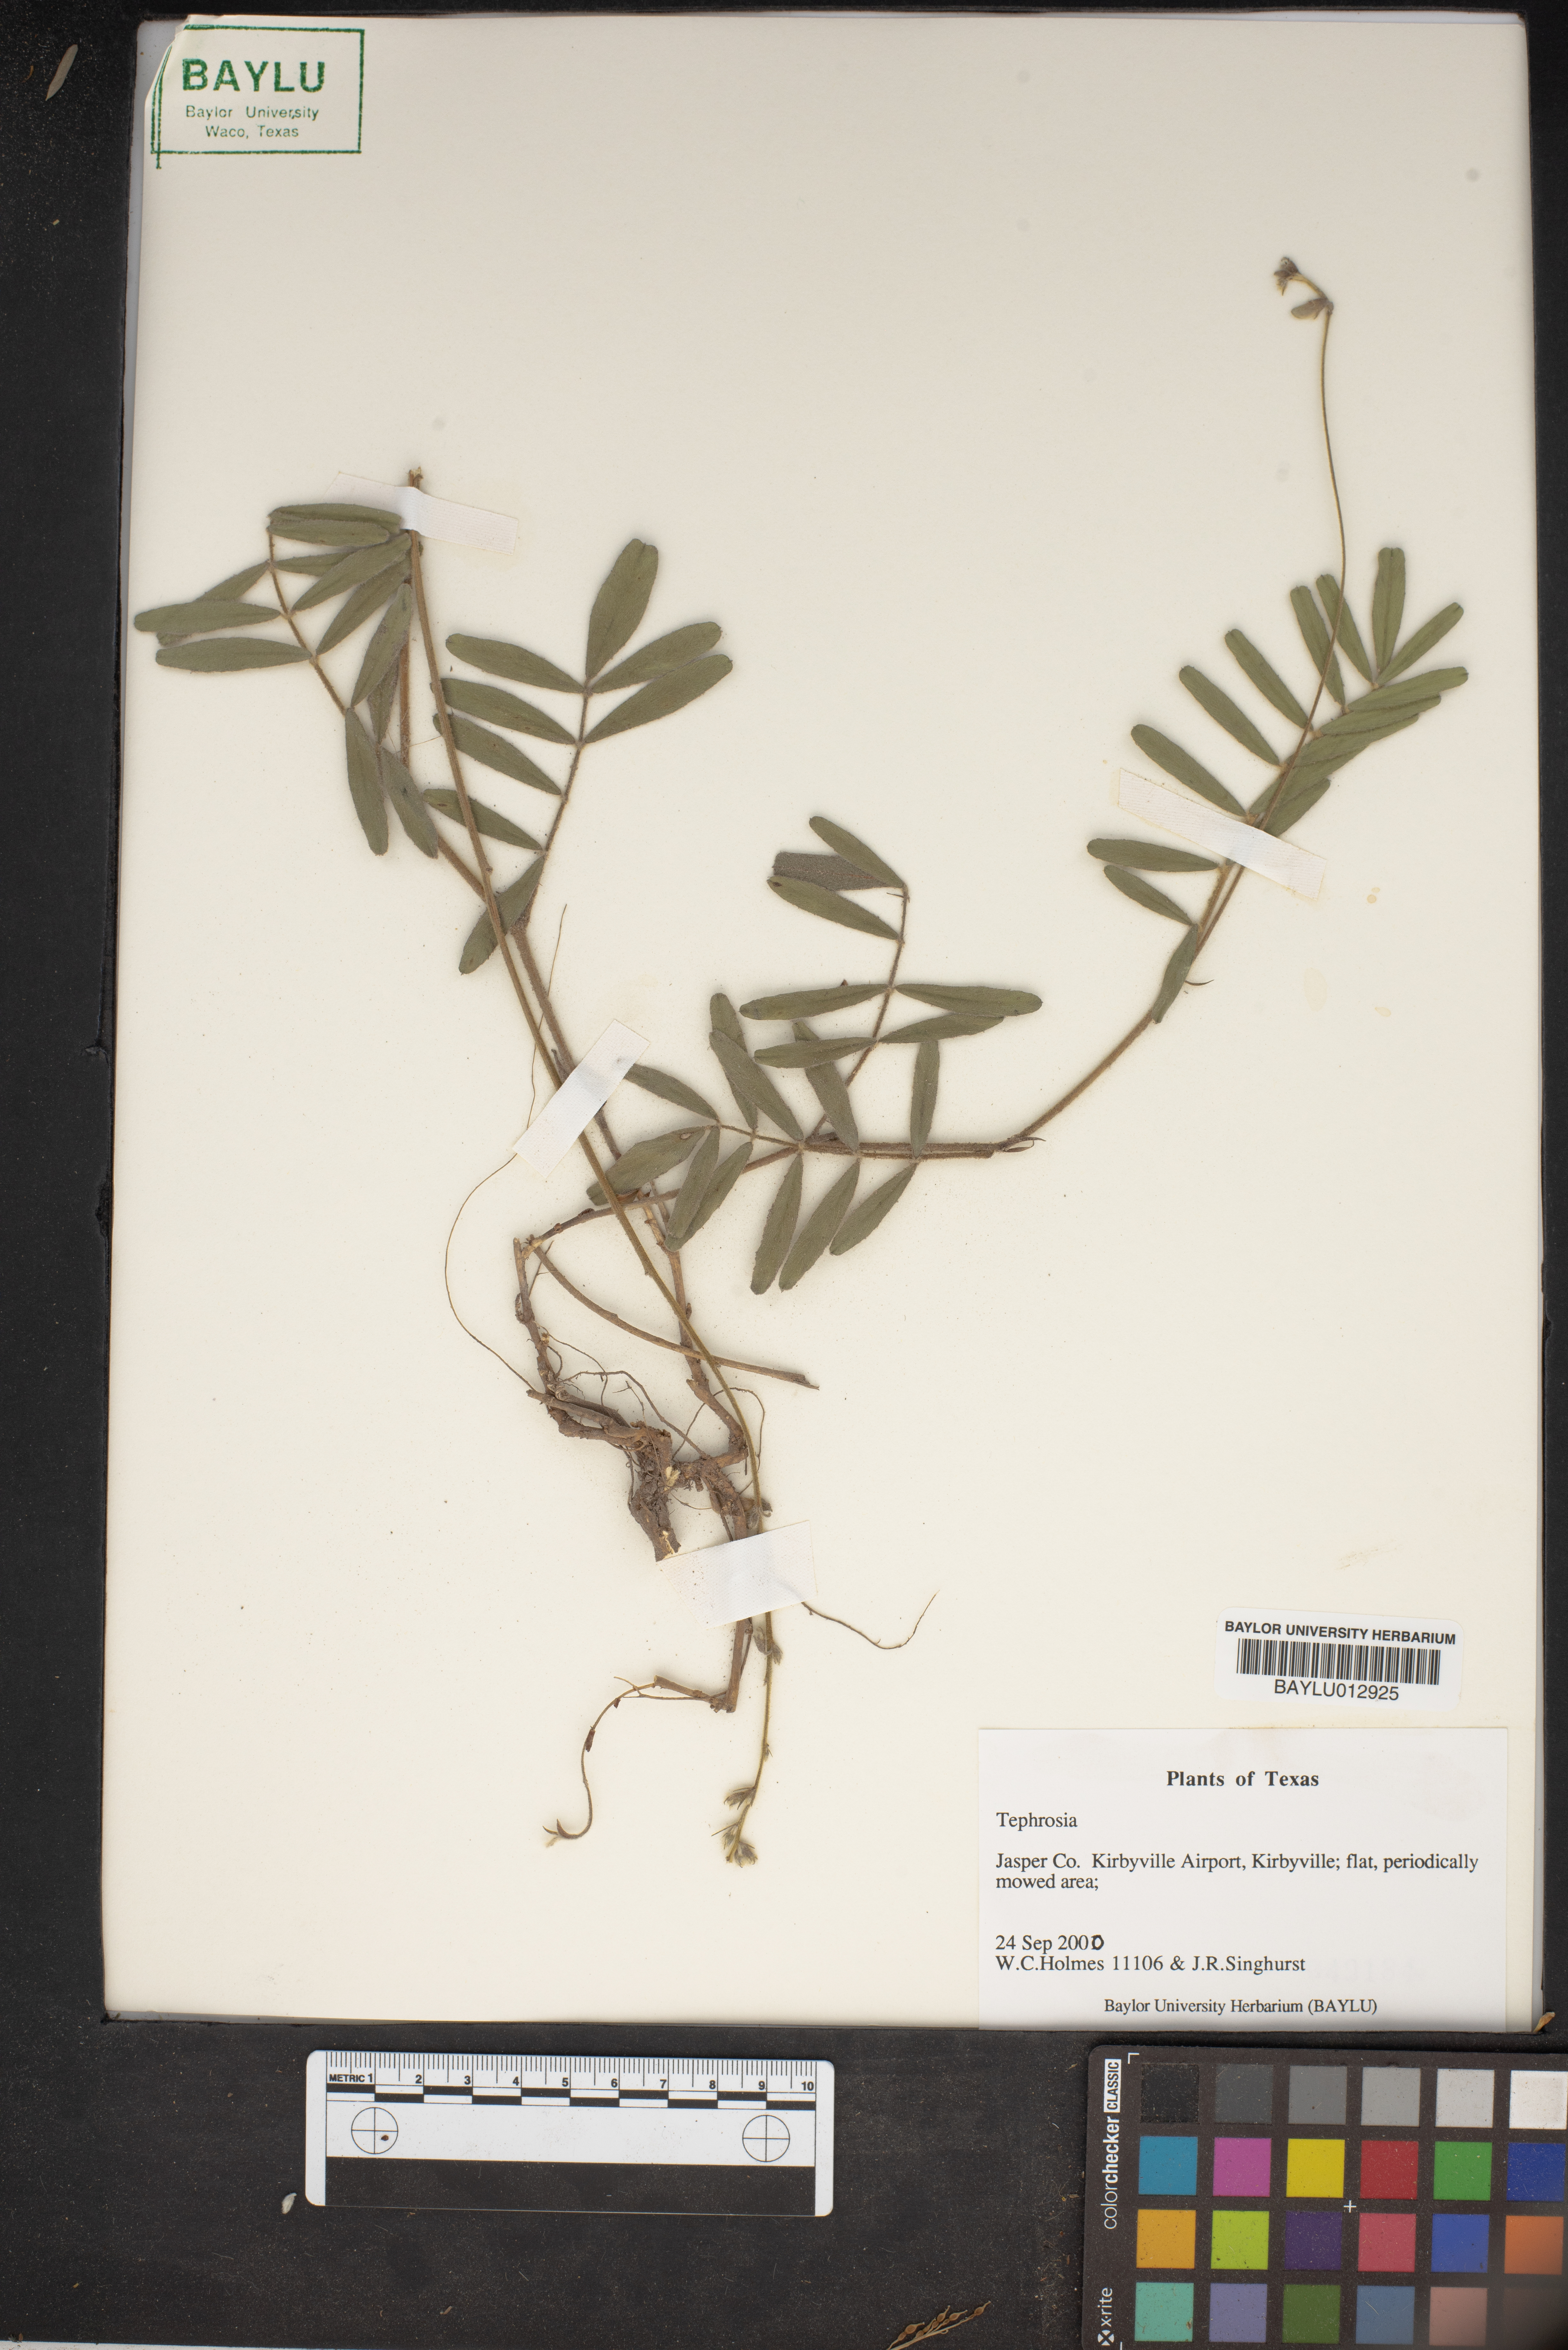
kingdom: Plantae
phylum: Tracheophyta
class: Magnoliopsida
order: Fabales
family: Fabaceae
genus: Tephrosia
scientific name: Tephrosia
